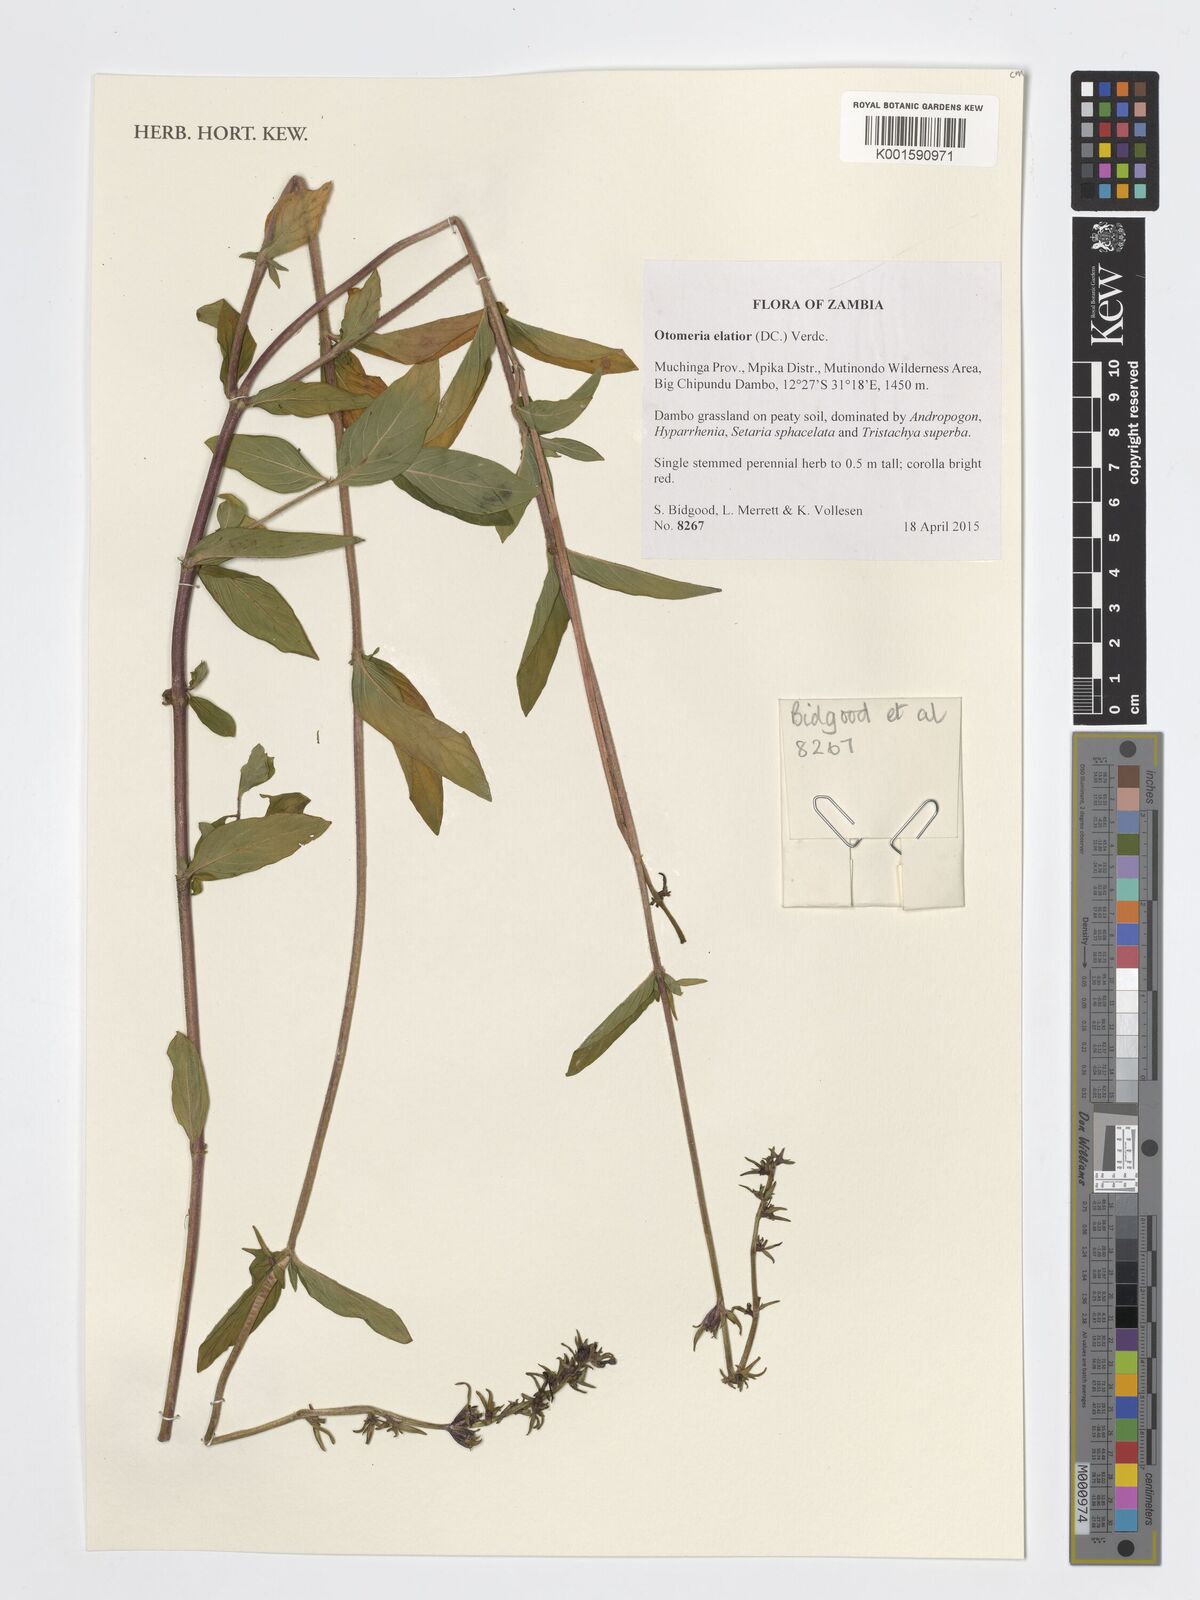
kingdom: Plantae
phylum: Tracheophyta
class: Magnoliopsida
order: Gentianales
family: Rubiaceae
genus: Otomeria
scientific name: Otomeria elatior
